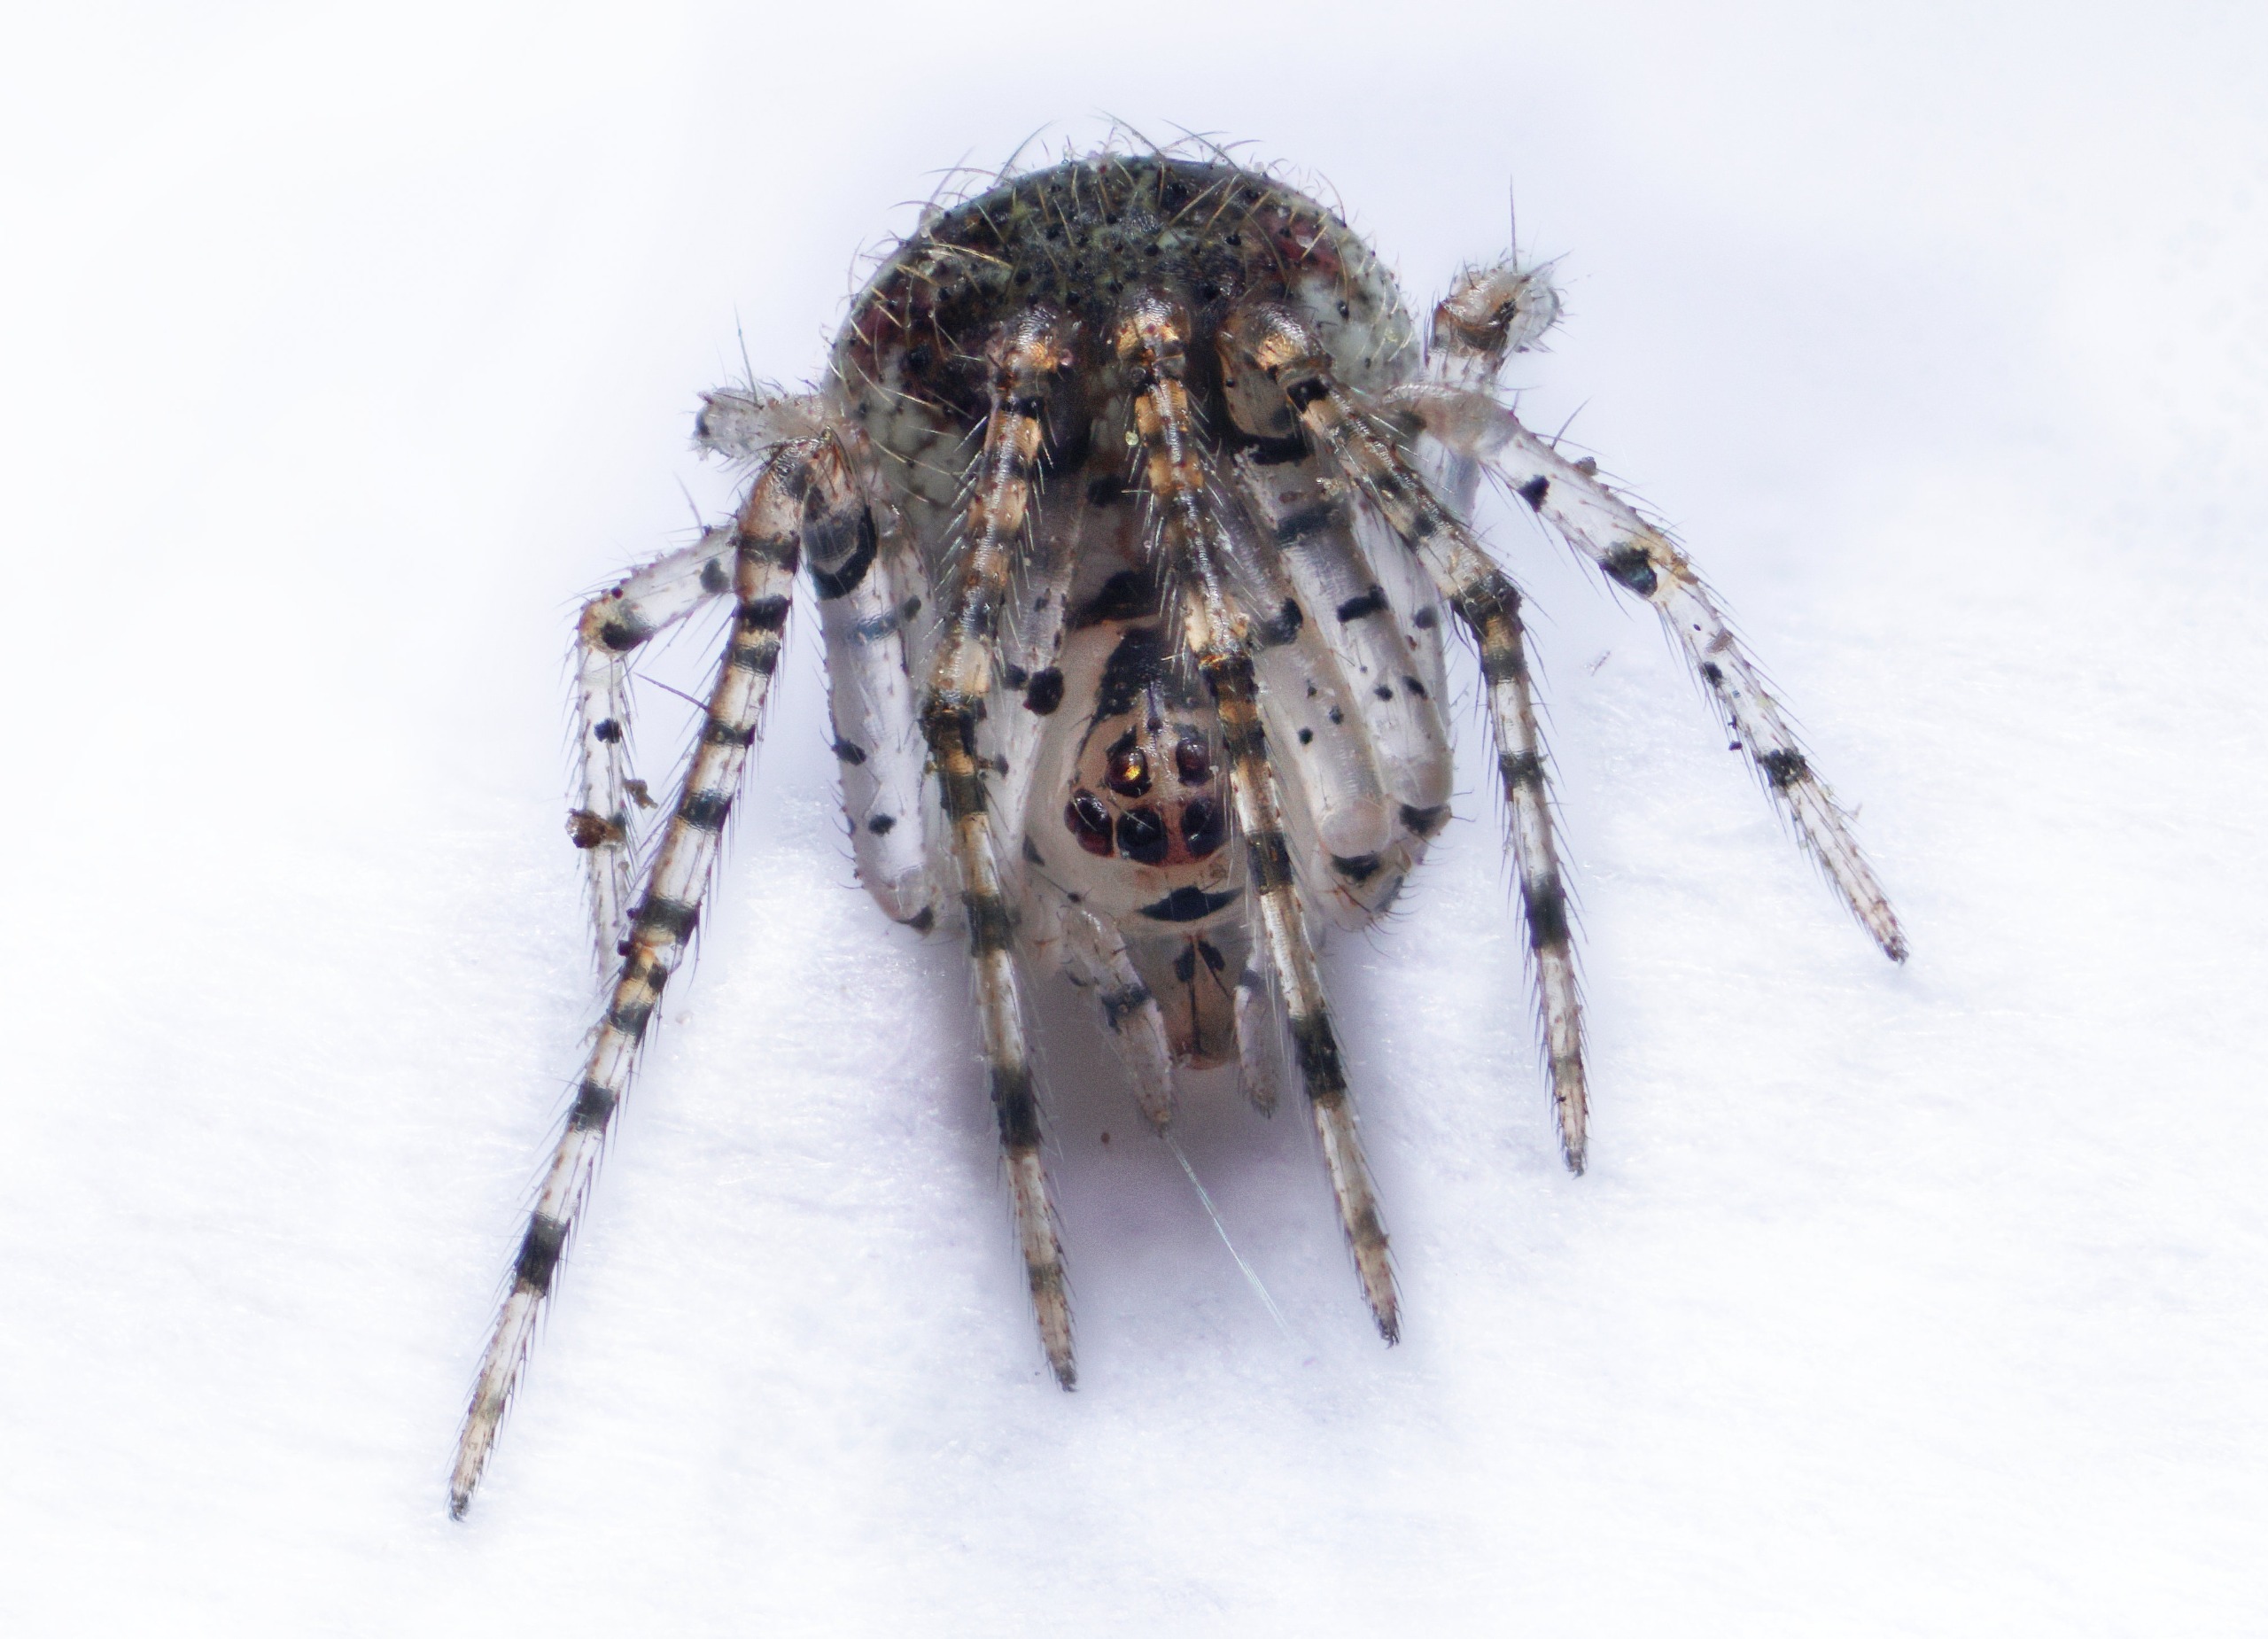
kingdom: Animalia
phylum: Arthropoda
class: Arachnida
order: Araneae
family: Theridiidae
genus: Platnickina
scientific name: Platnickina tincta
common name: Blækkugleedderkop
